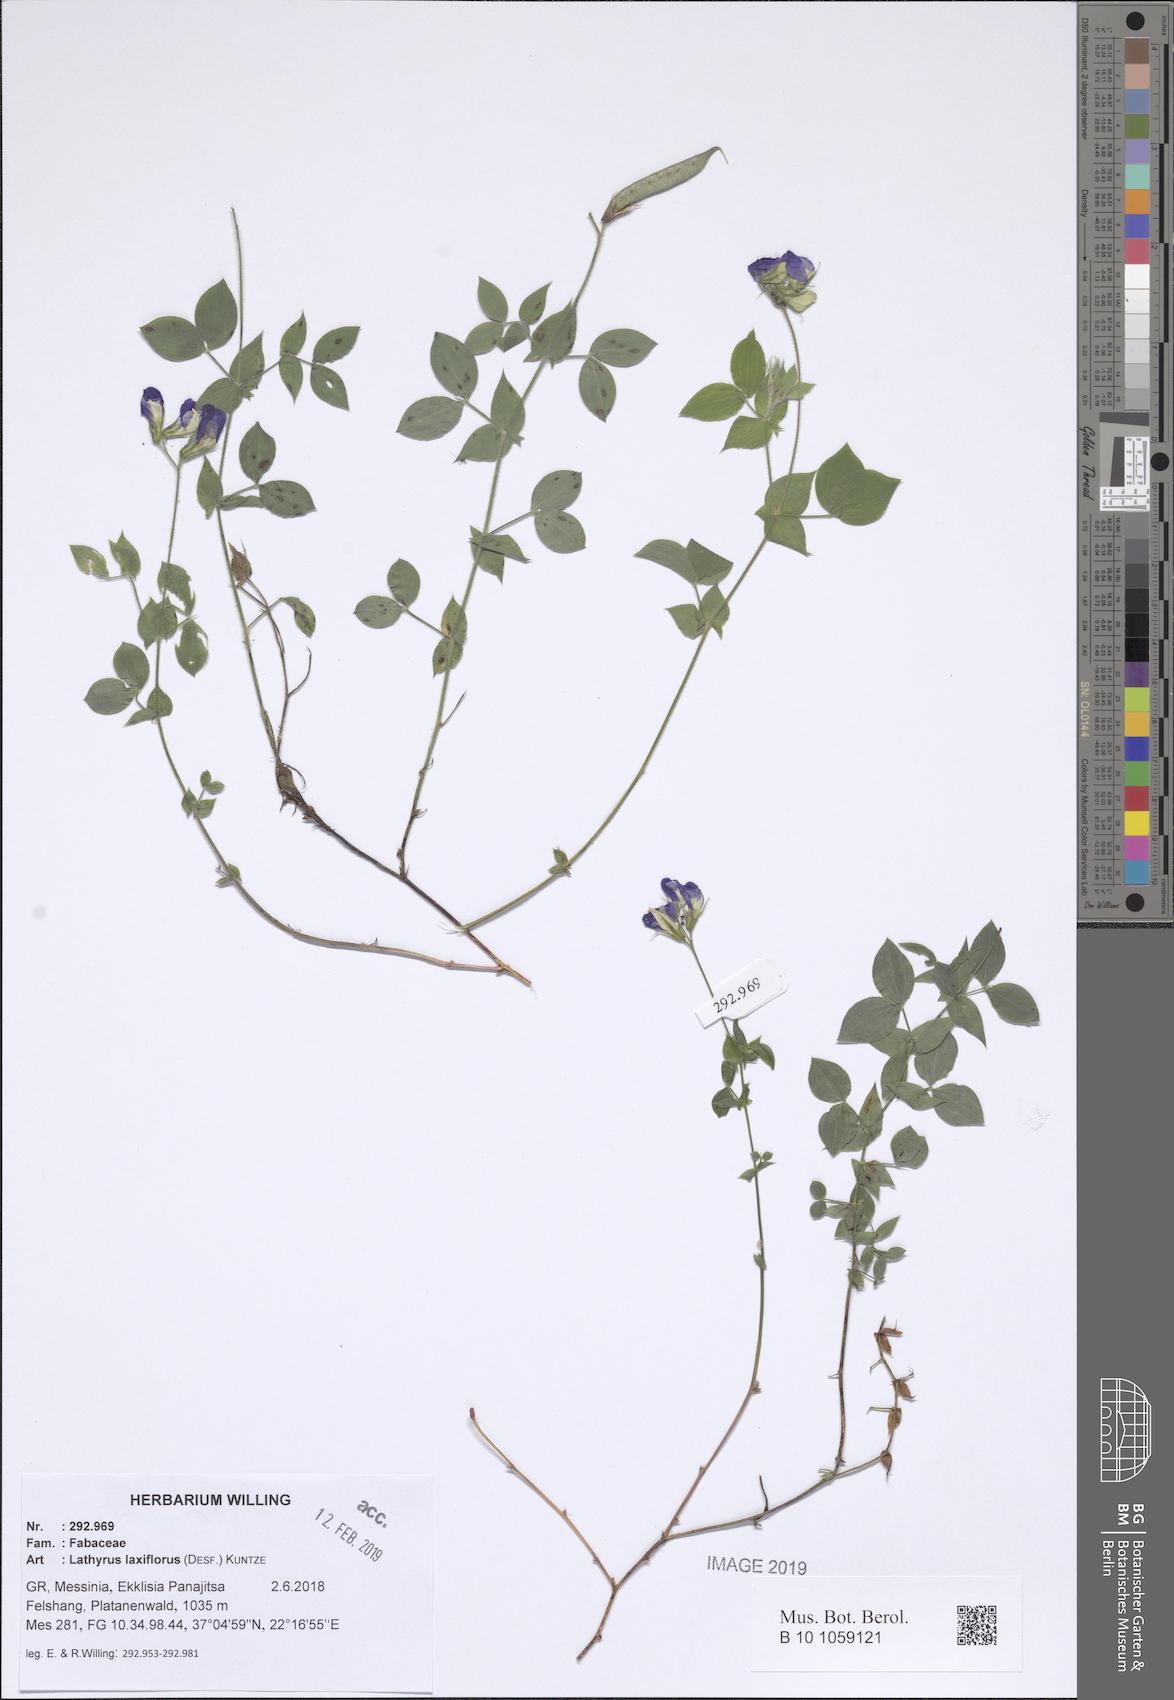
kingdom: Plantae
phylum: Tracheophyta
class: Magnoliopsida
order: Fabales
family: Fabaceae
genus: Lathyrus
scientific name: Lathyrus laxiflorus
